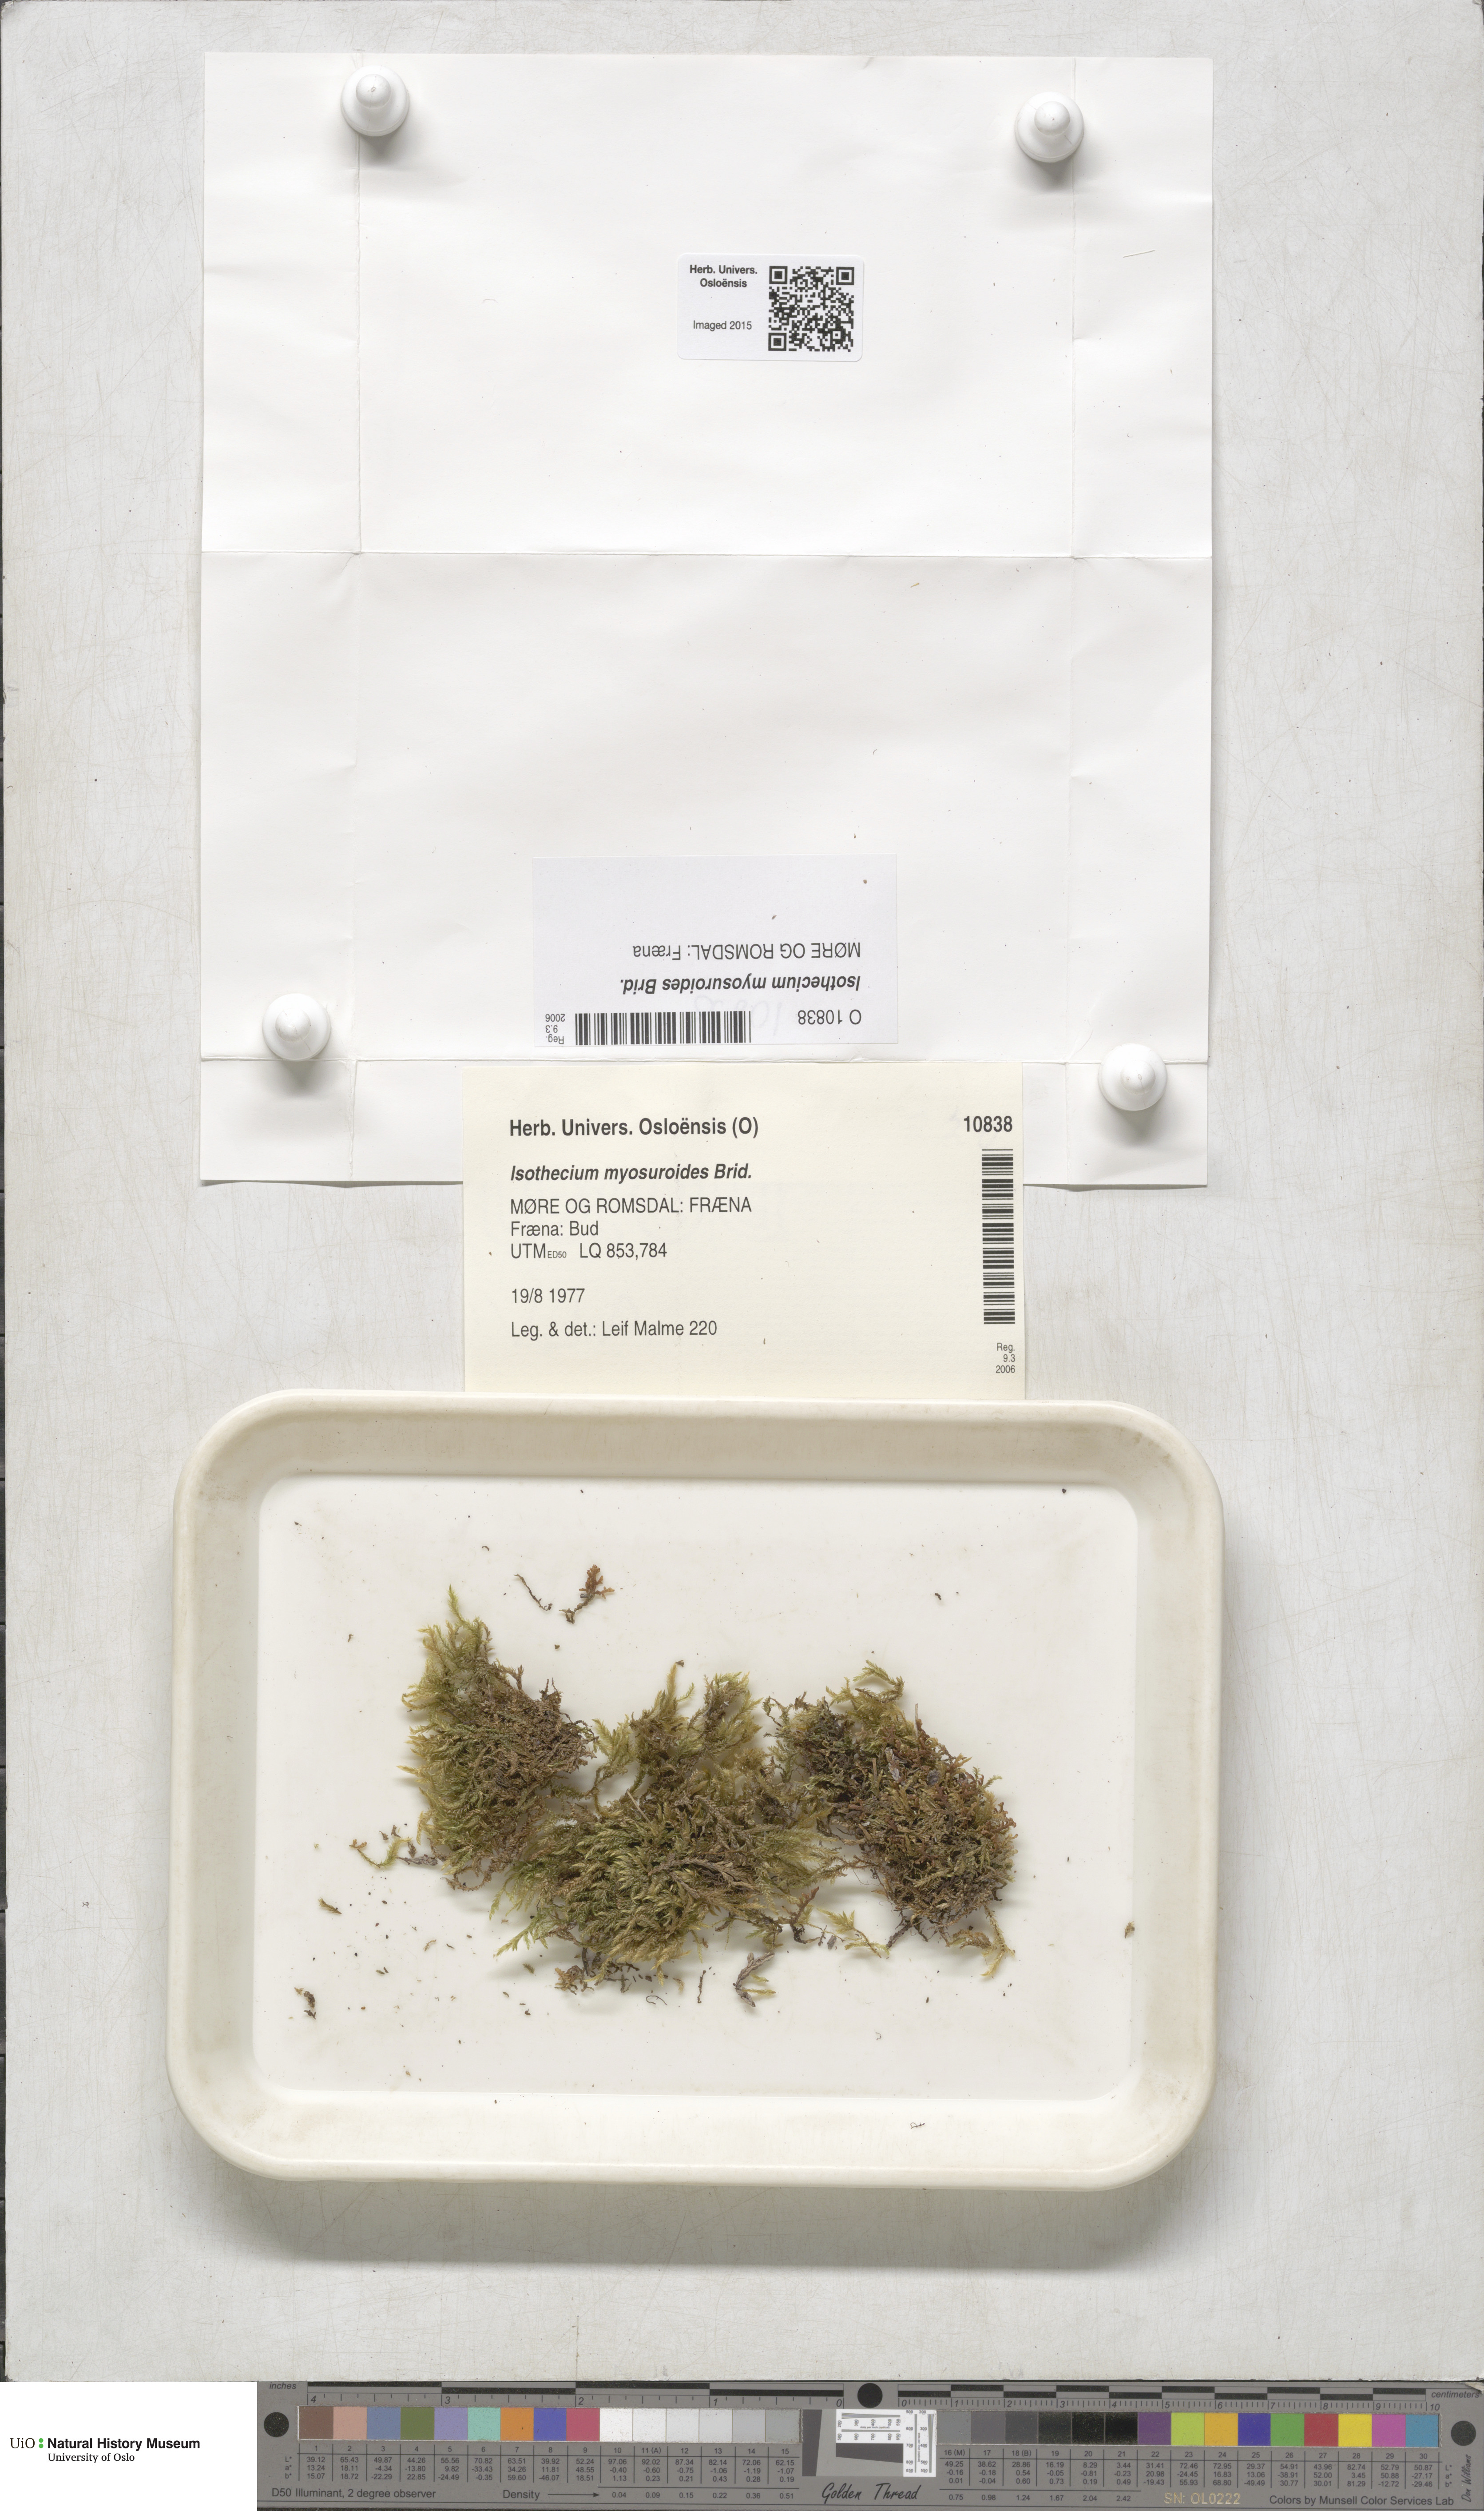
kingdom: Plantae
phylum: Bryophyta
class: Bryopsida
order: Hypnales
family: Lembophyllaceae
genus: Pseudisothecium
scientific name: Pseudisothecium myosuroides
